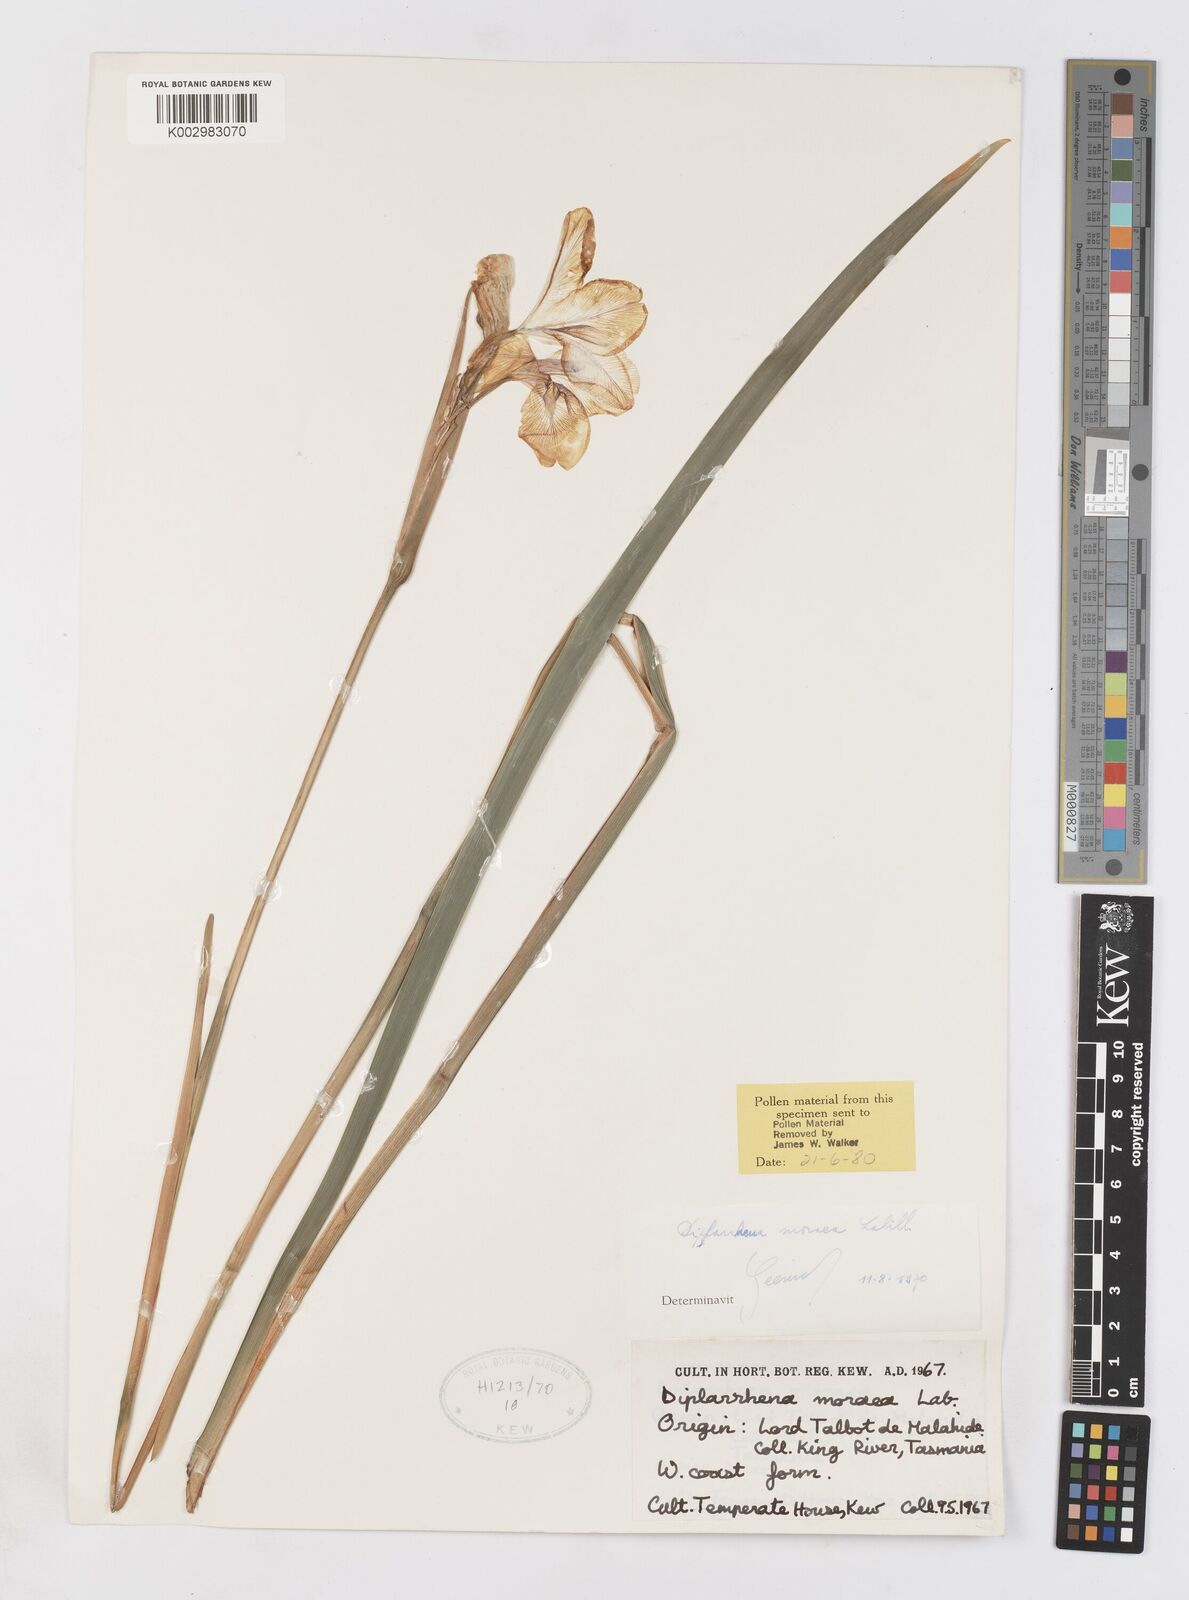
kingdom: Plantae
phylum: Tracheophyta
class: Liliopsida
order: Asparagales
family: Iridaceae
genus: Diplarrena
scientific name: Diplarrena moraea
